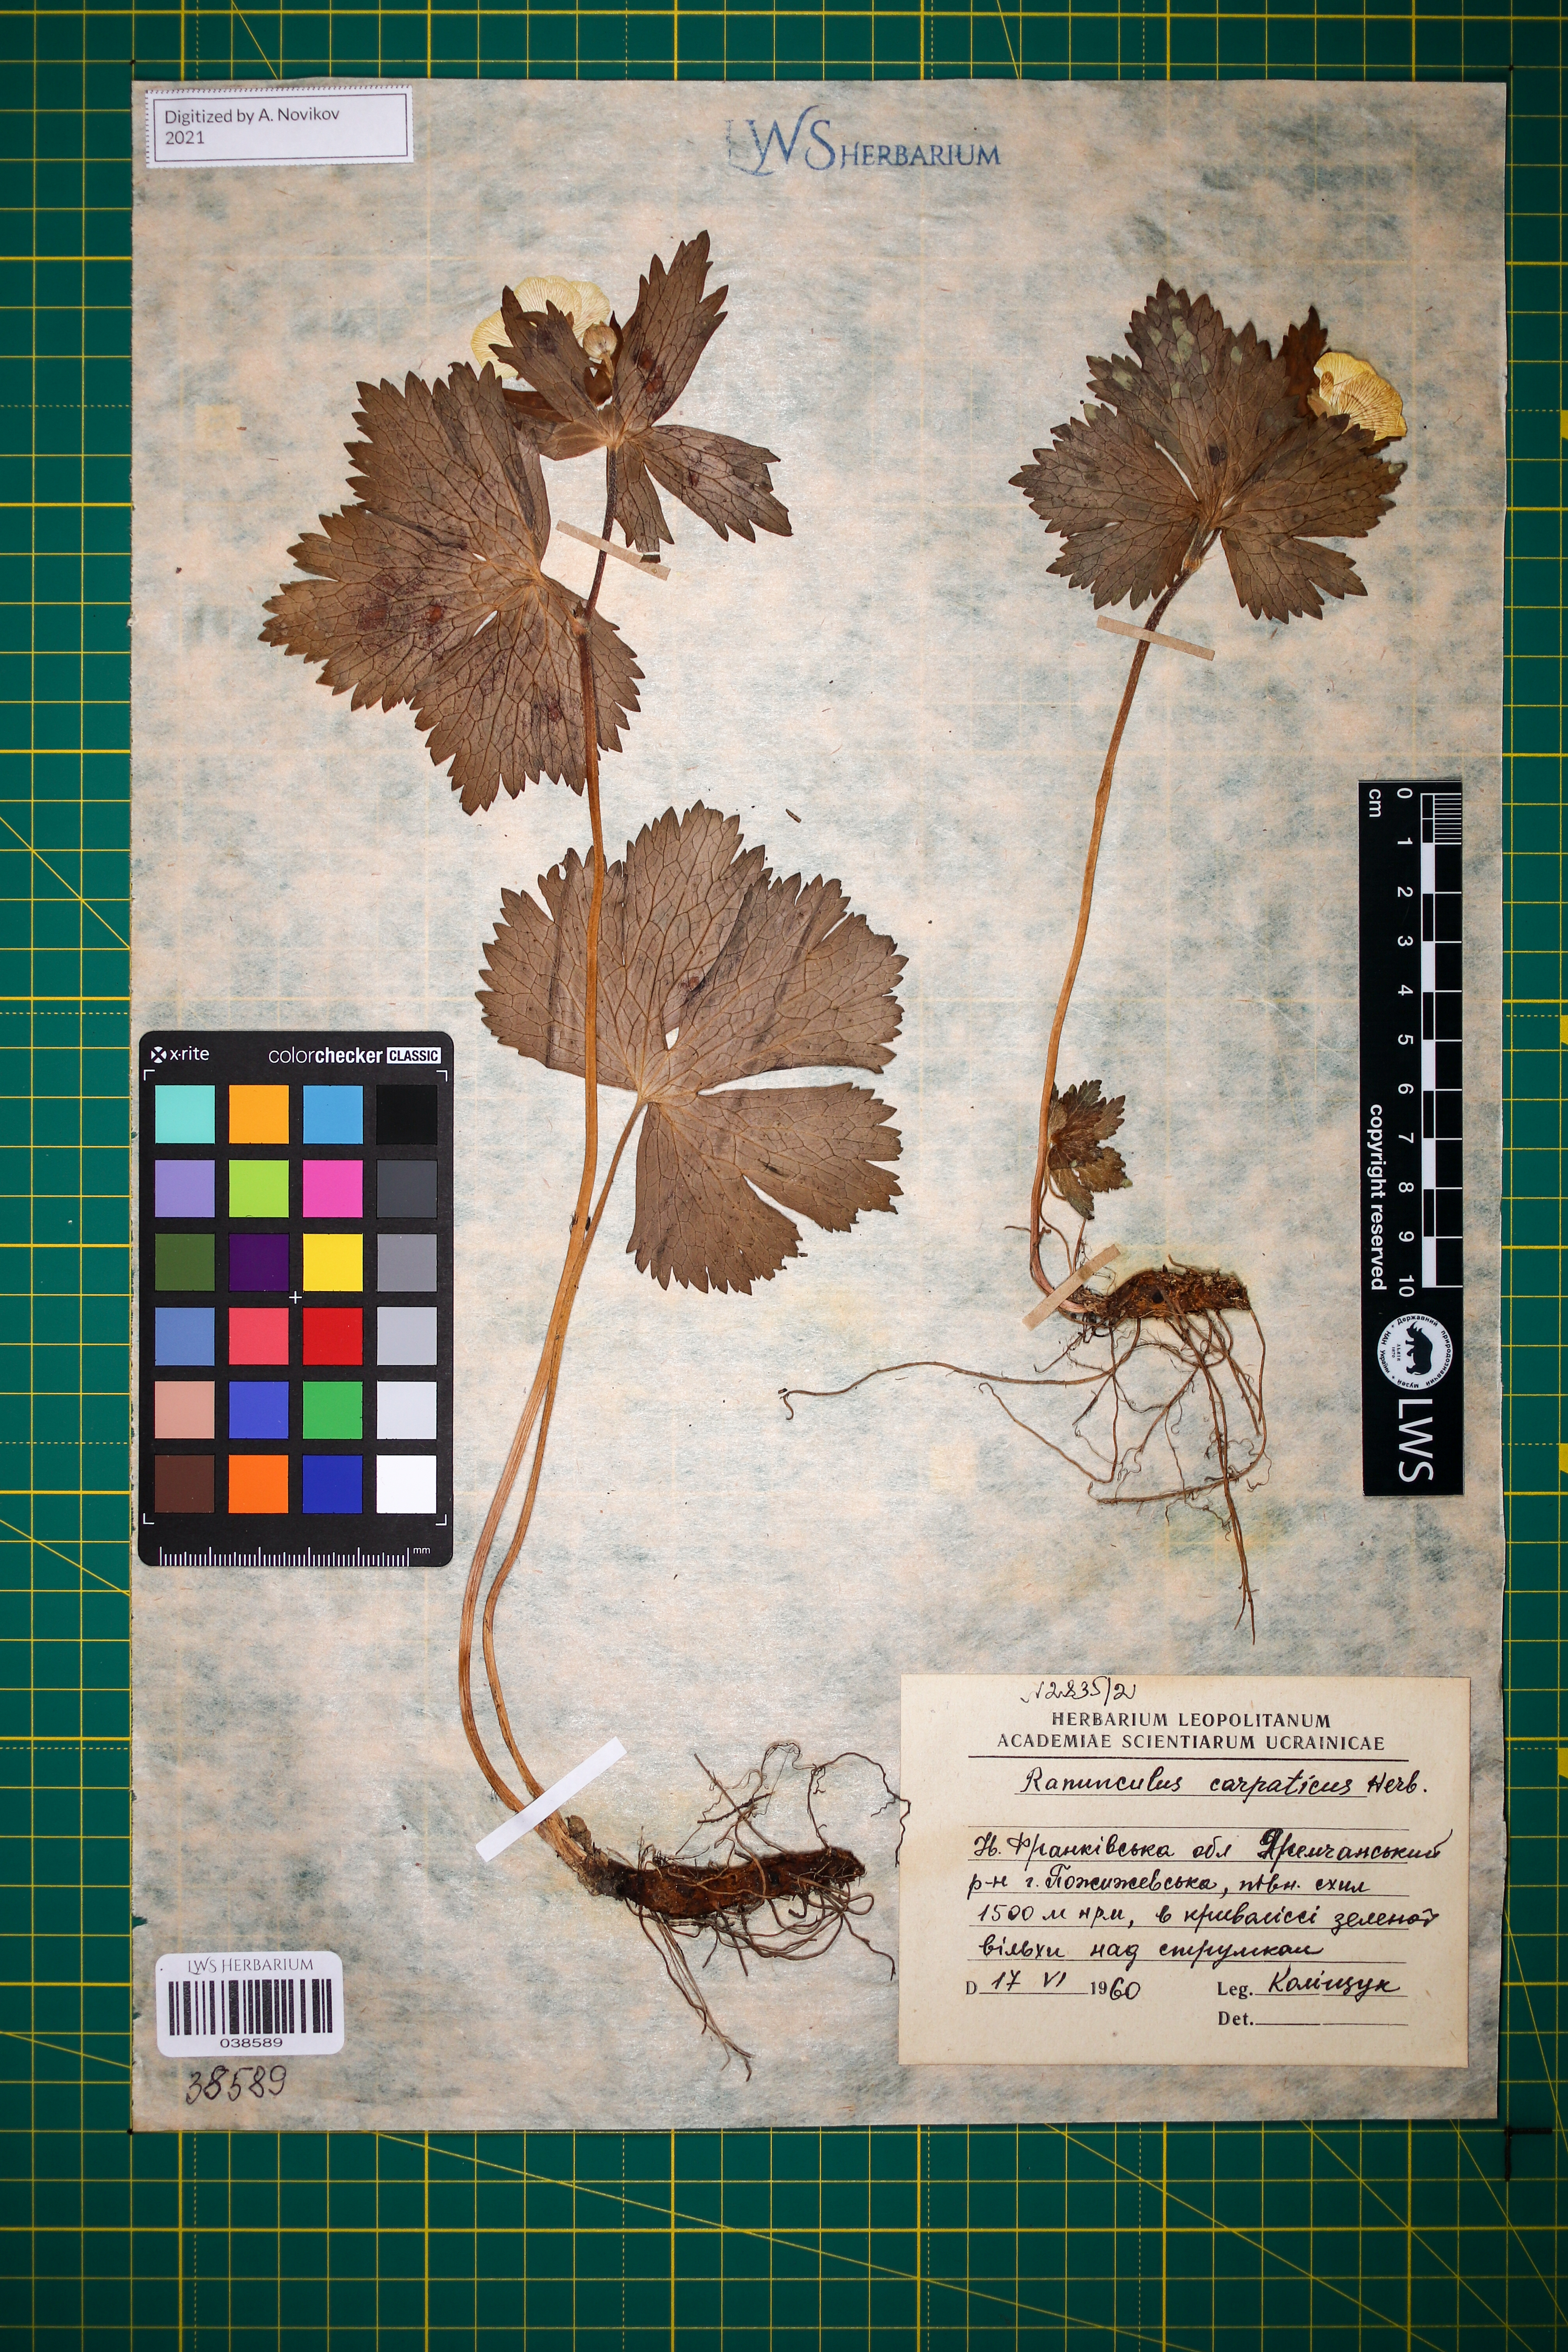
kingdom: Plantae
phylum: Tracheophyta
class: Magnoliopsida
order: Ranunculales
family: Ranunculaceae
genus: Ranunculus
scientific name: Ranunculus carpaticus
